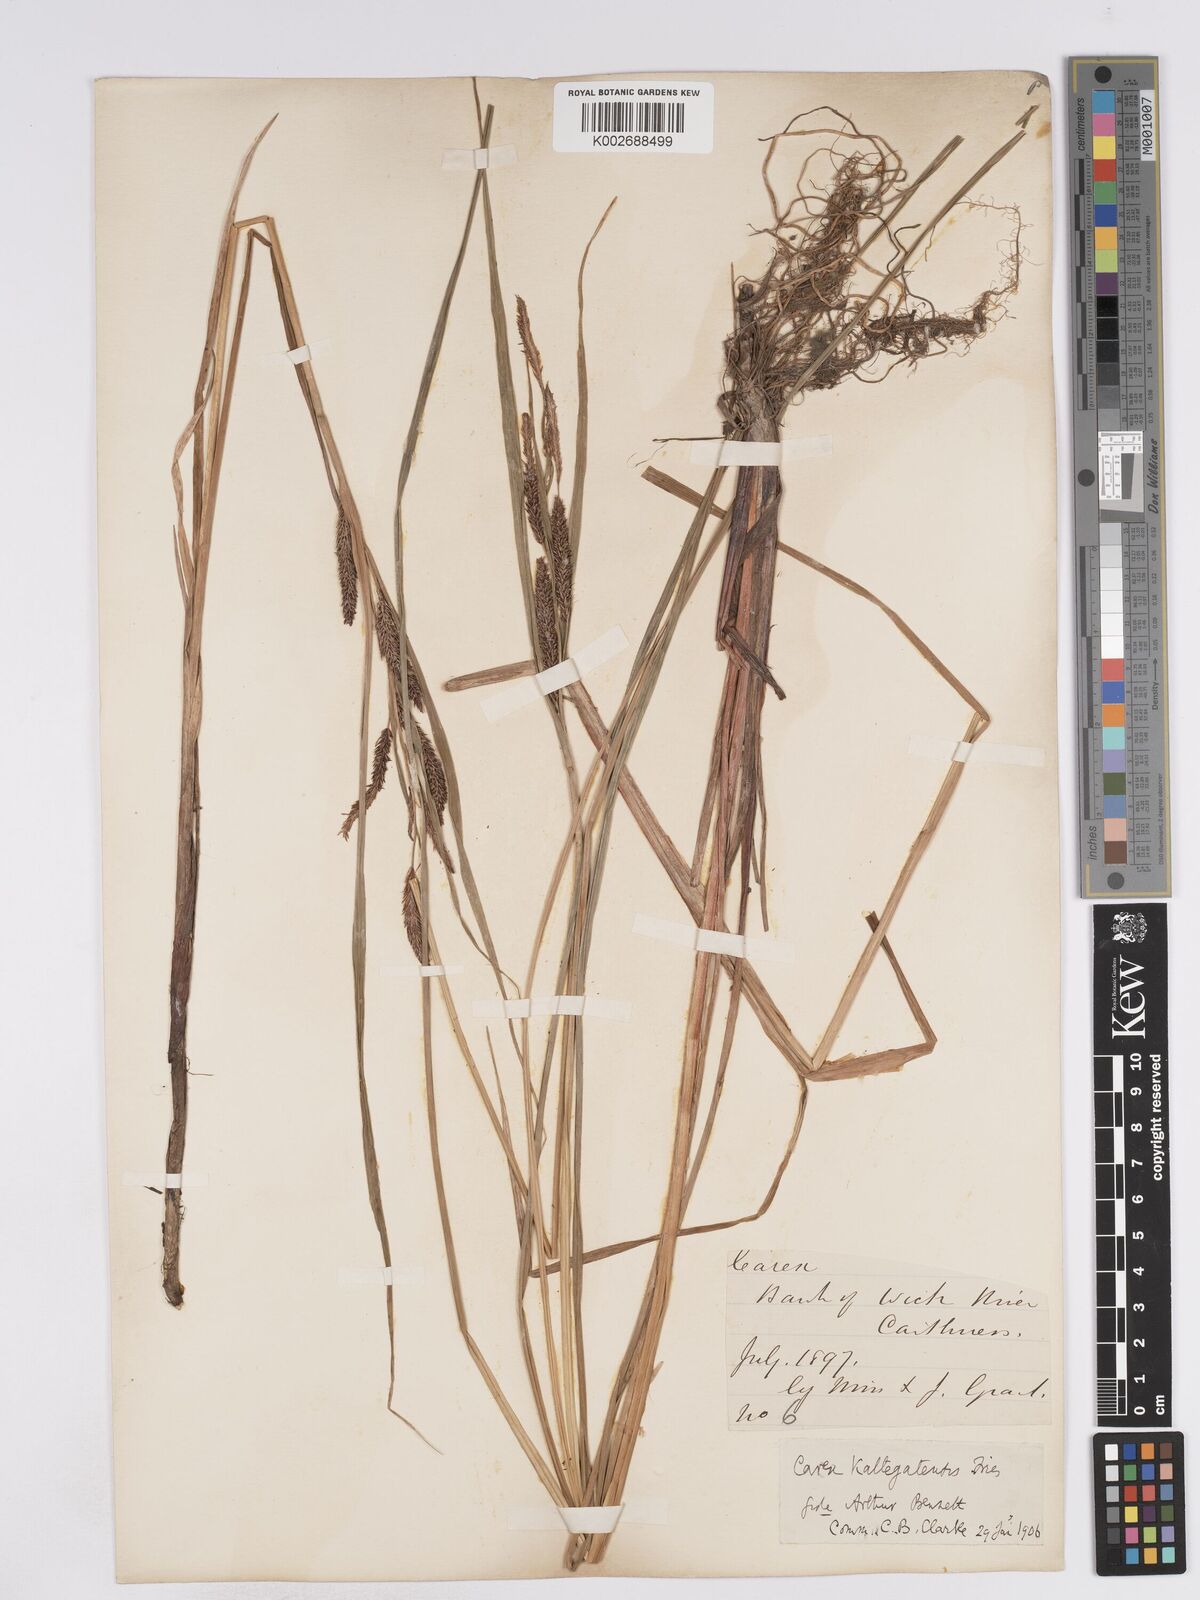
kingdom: Plantae
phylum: Tracheophyta
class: Liliopsida
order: Poales
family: Cyperaceae
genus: Carex
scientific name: Carex recta
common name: Estuarine sedge
